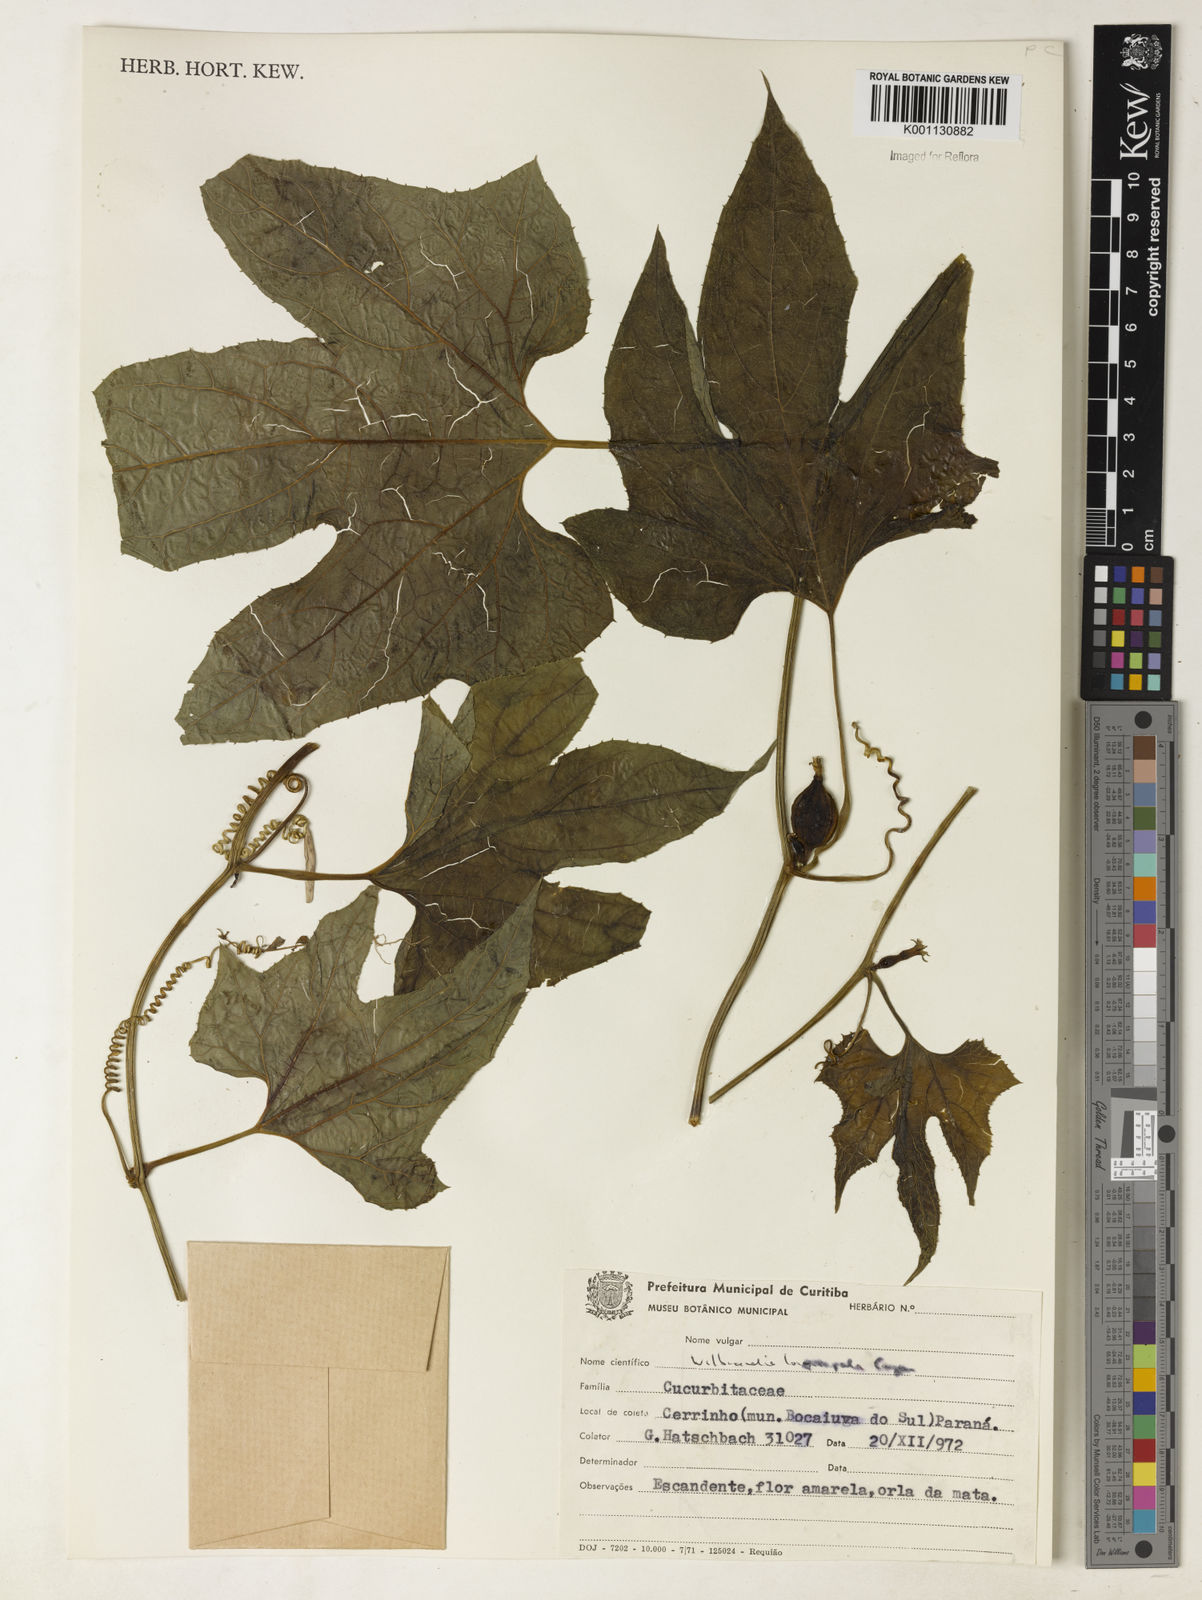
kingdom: Plantae
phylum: Tracheophyta
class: Magnoliopsida
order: Cucurbitales
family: Cucurbitaceae
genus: Wilbrandia
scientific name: Wilbrandia longisepala
